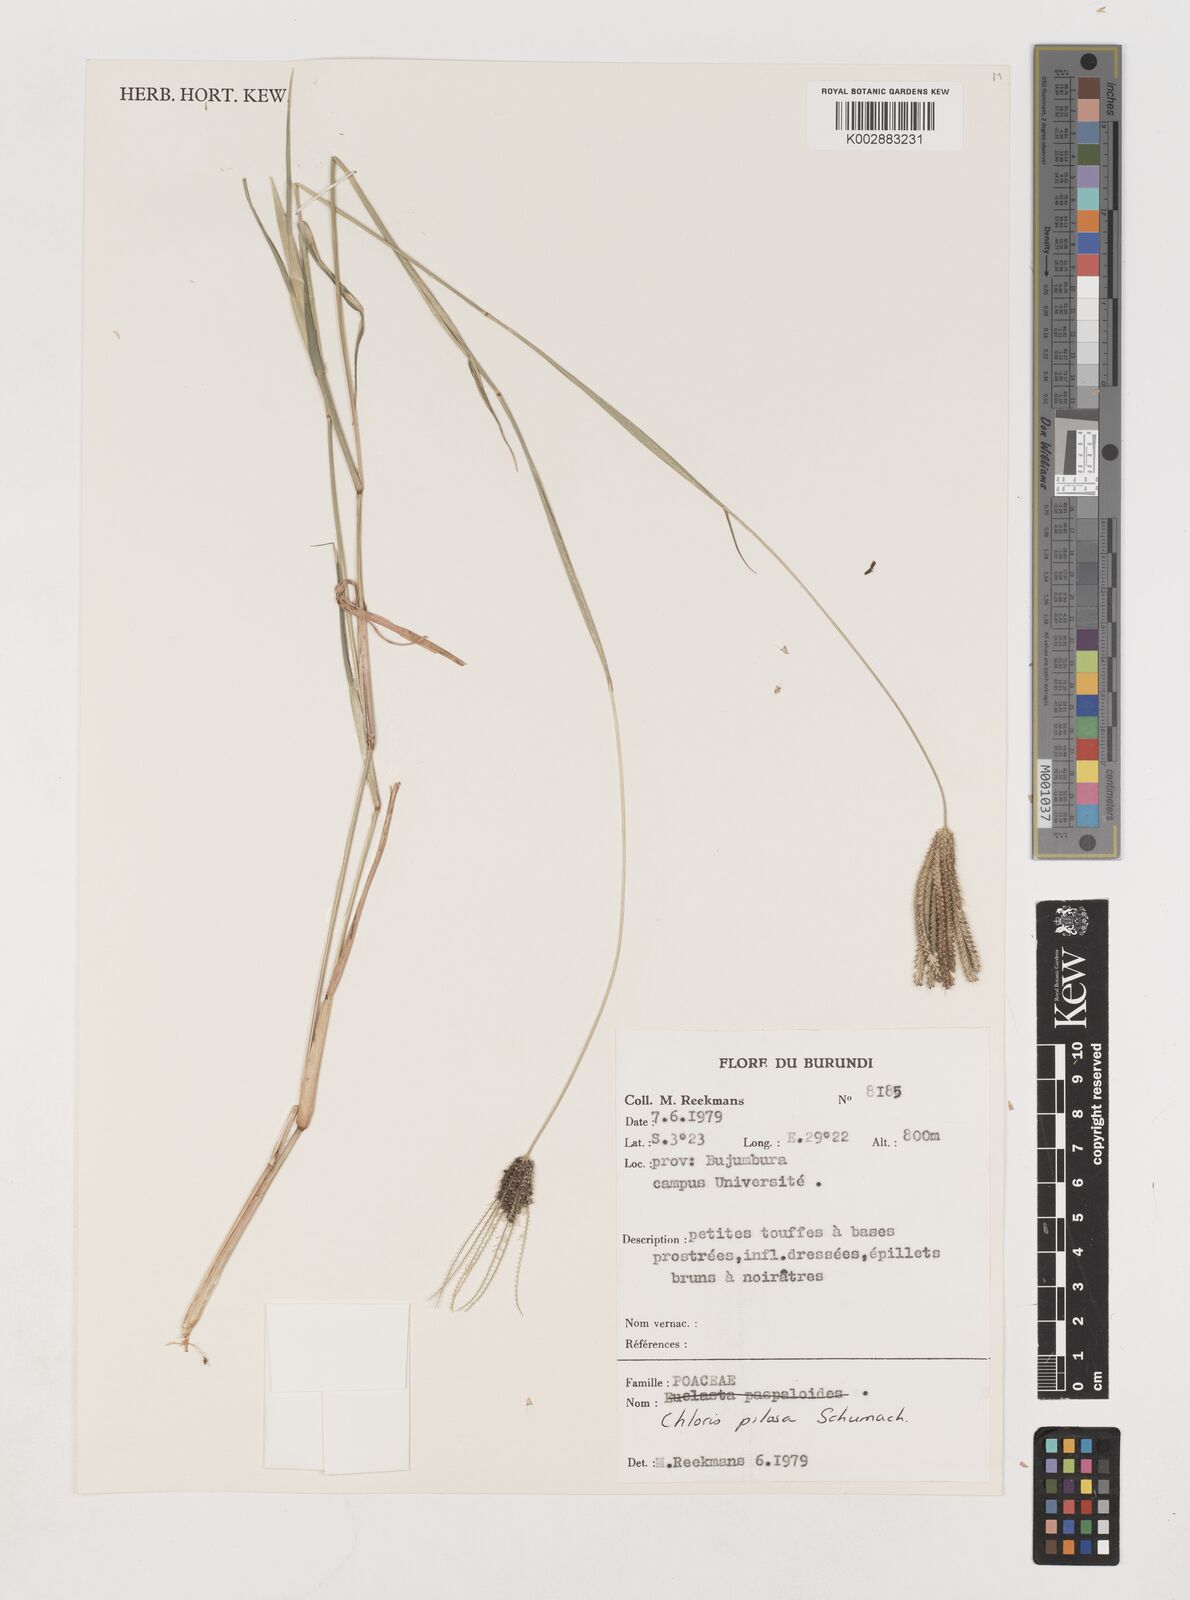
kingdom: Plantae
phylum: Tracheophyta
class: Liliopsida
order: Poales
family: Poaceae
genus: Chloris
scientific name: Chloris pilosa
